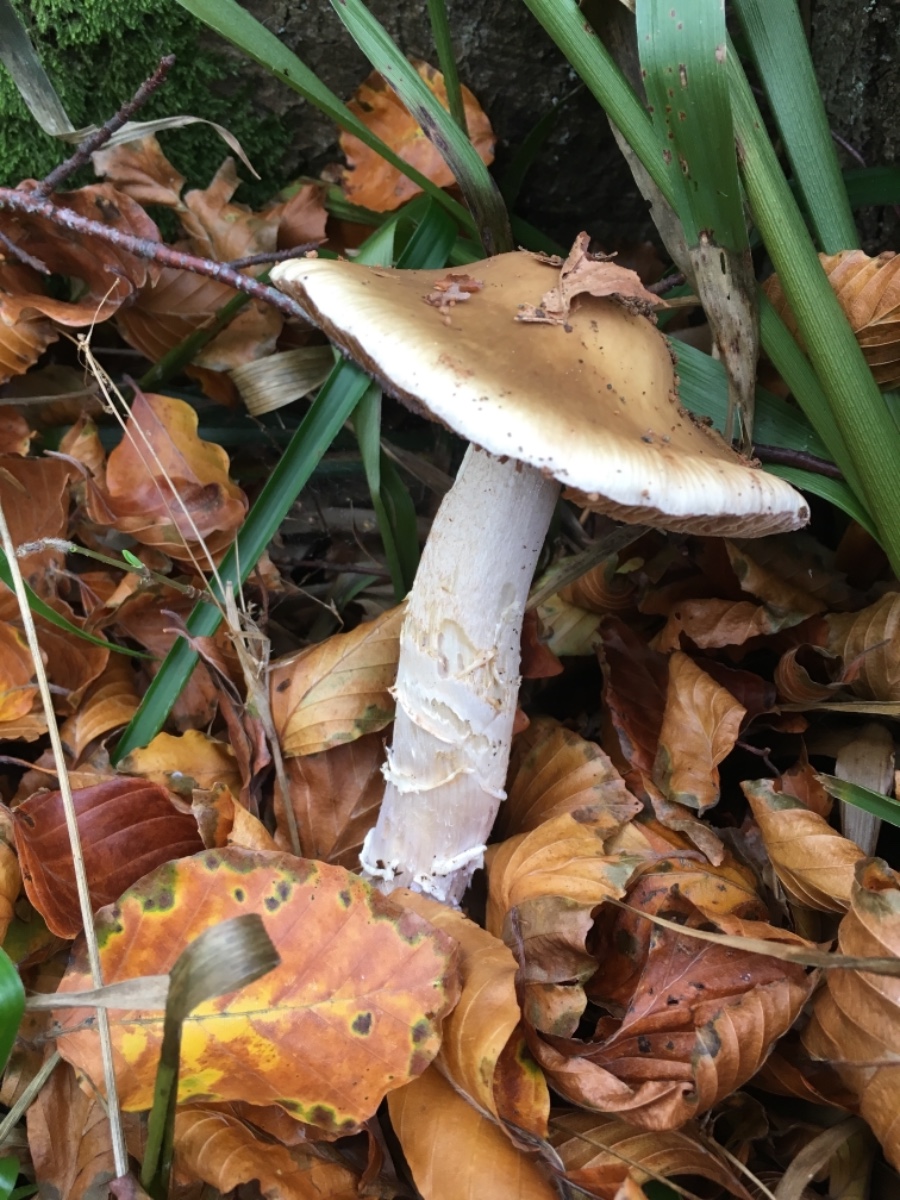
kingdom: Fungi
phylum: Basidiomycota
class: Agaricomycetes
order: Agaricales
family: Cortinariaceae
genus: Cortinarius
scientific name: Cortinarius elatior
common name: høj slørhat
